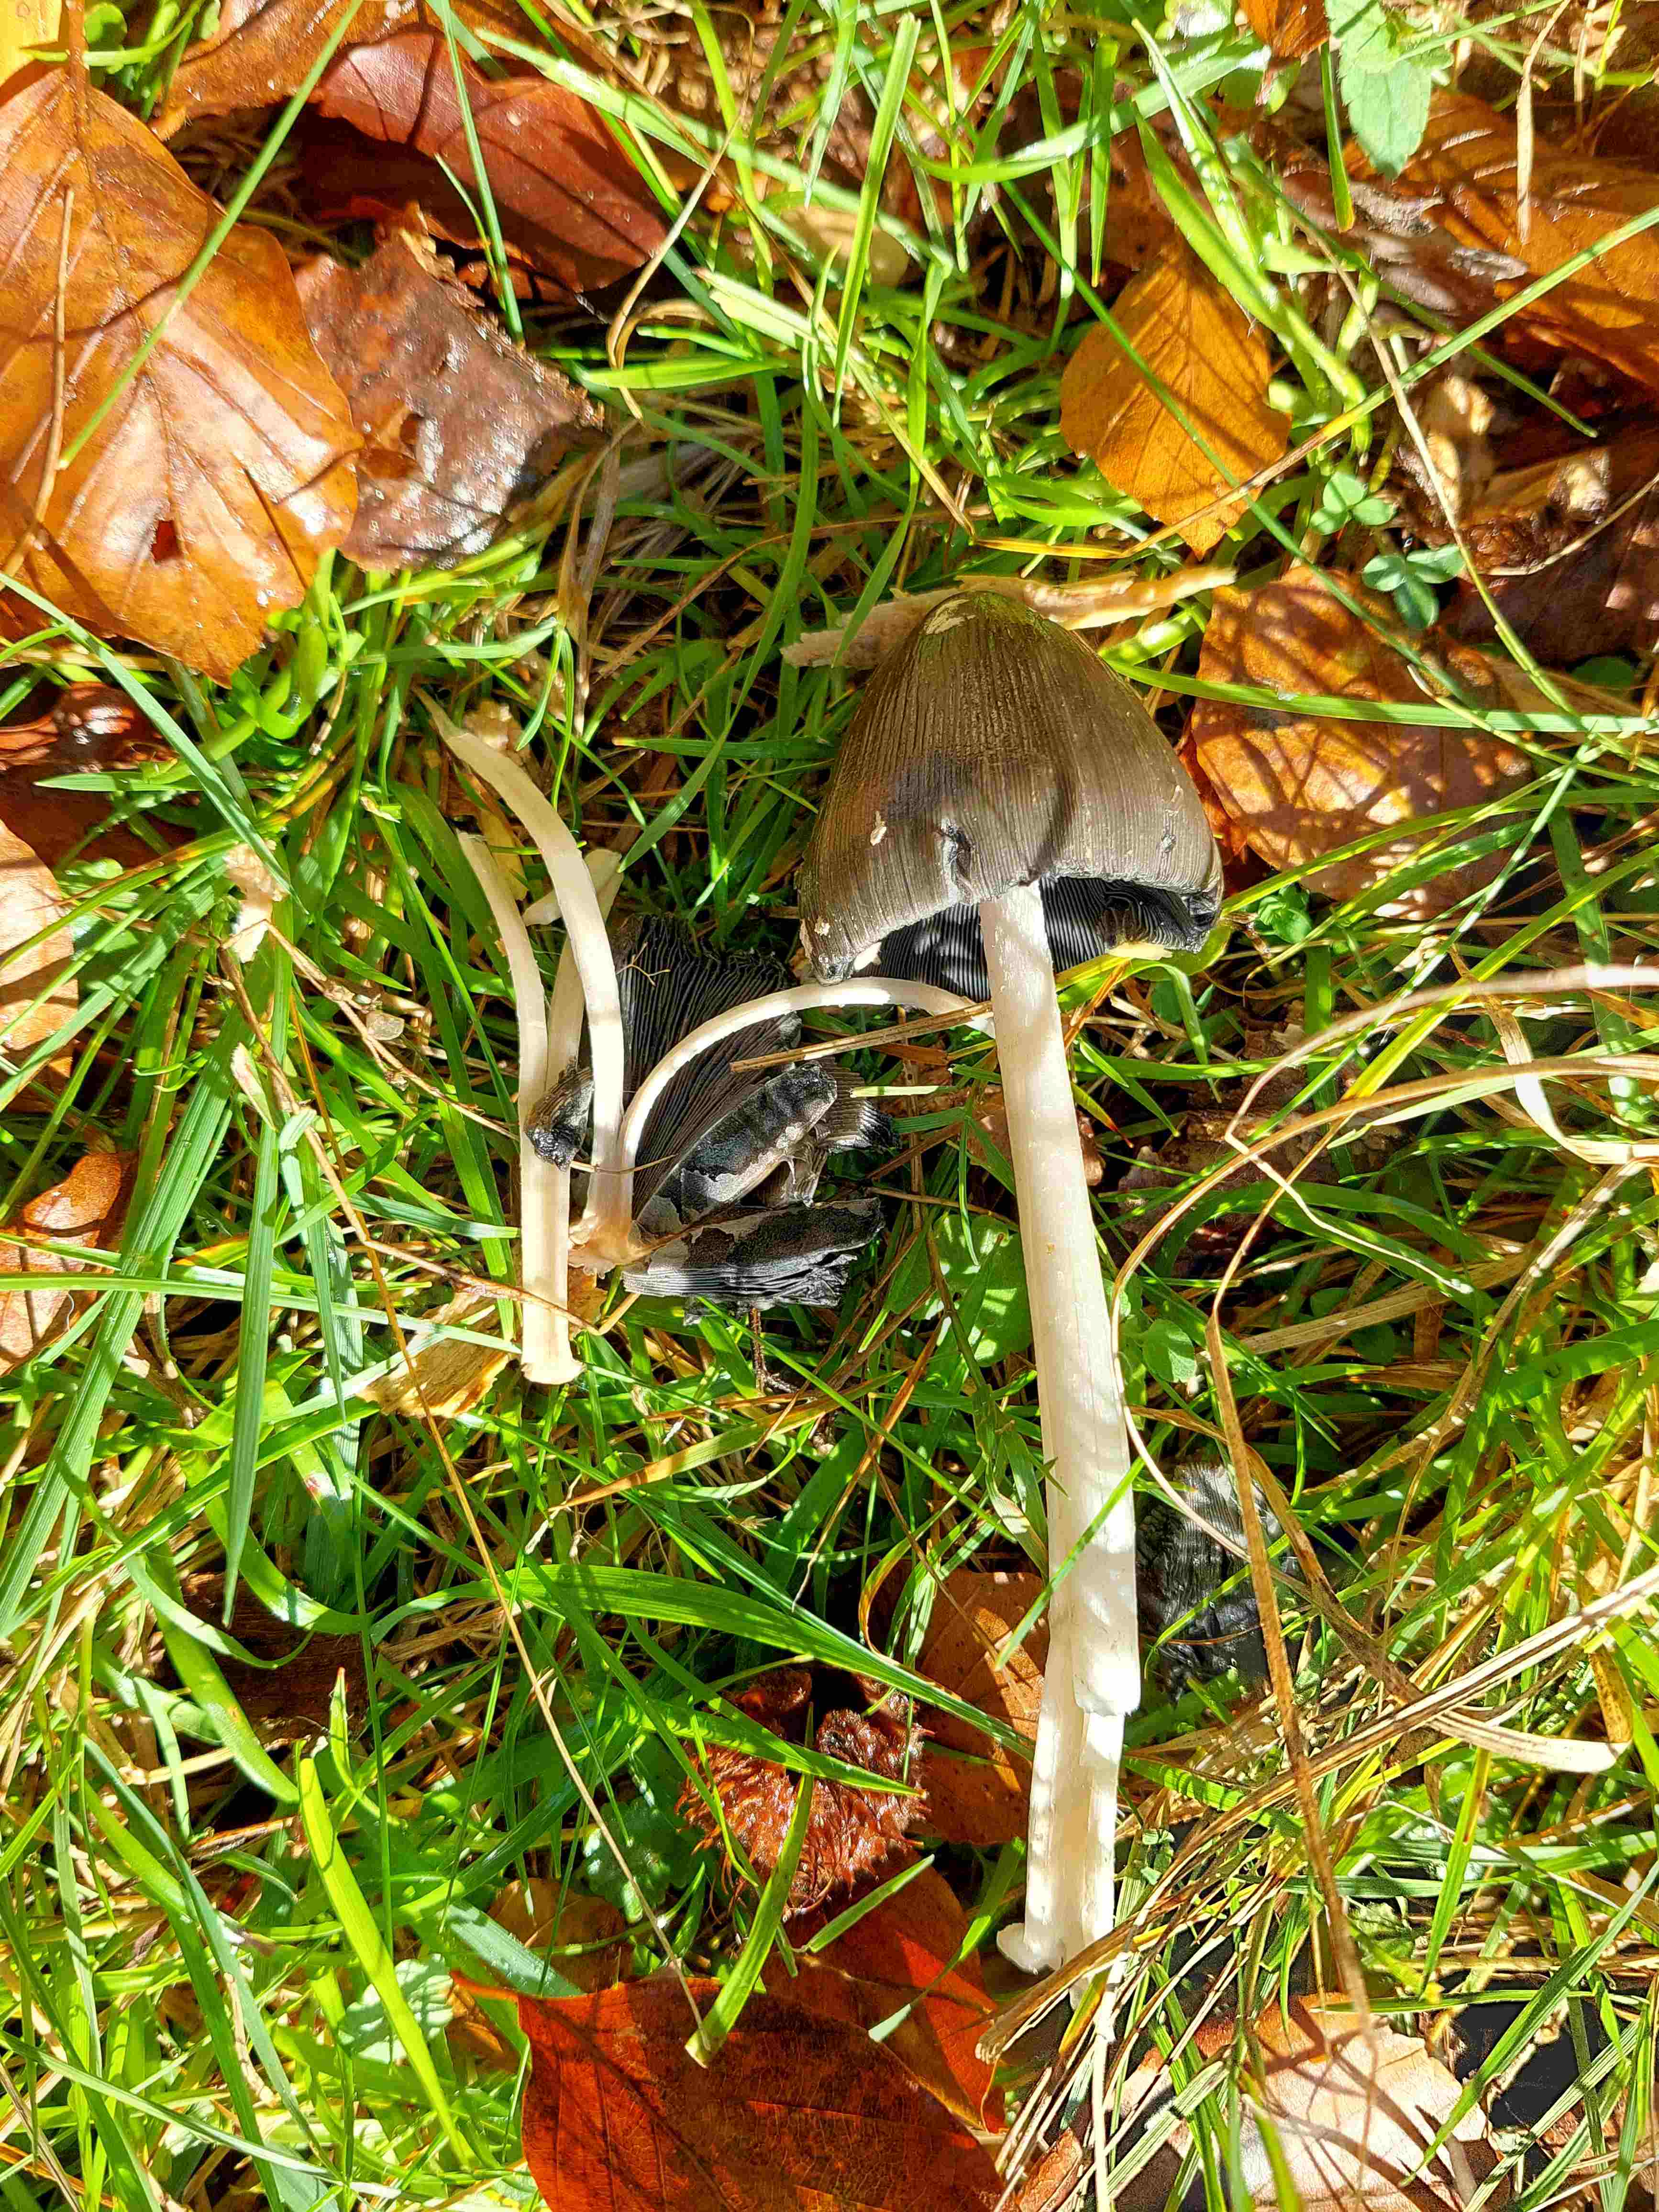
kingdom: Fungi
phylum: Basidiomycota
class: Agaricomycetes
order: Agaricales
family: Psathyrellaceae
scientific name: Psathyrellaceae
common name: mørkhatfamilien
